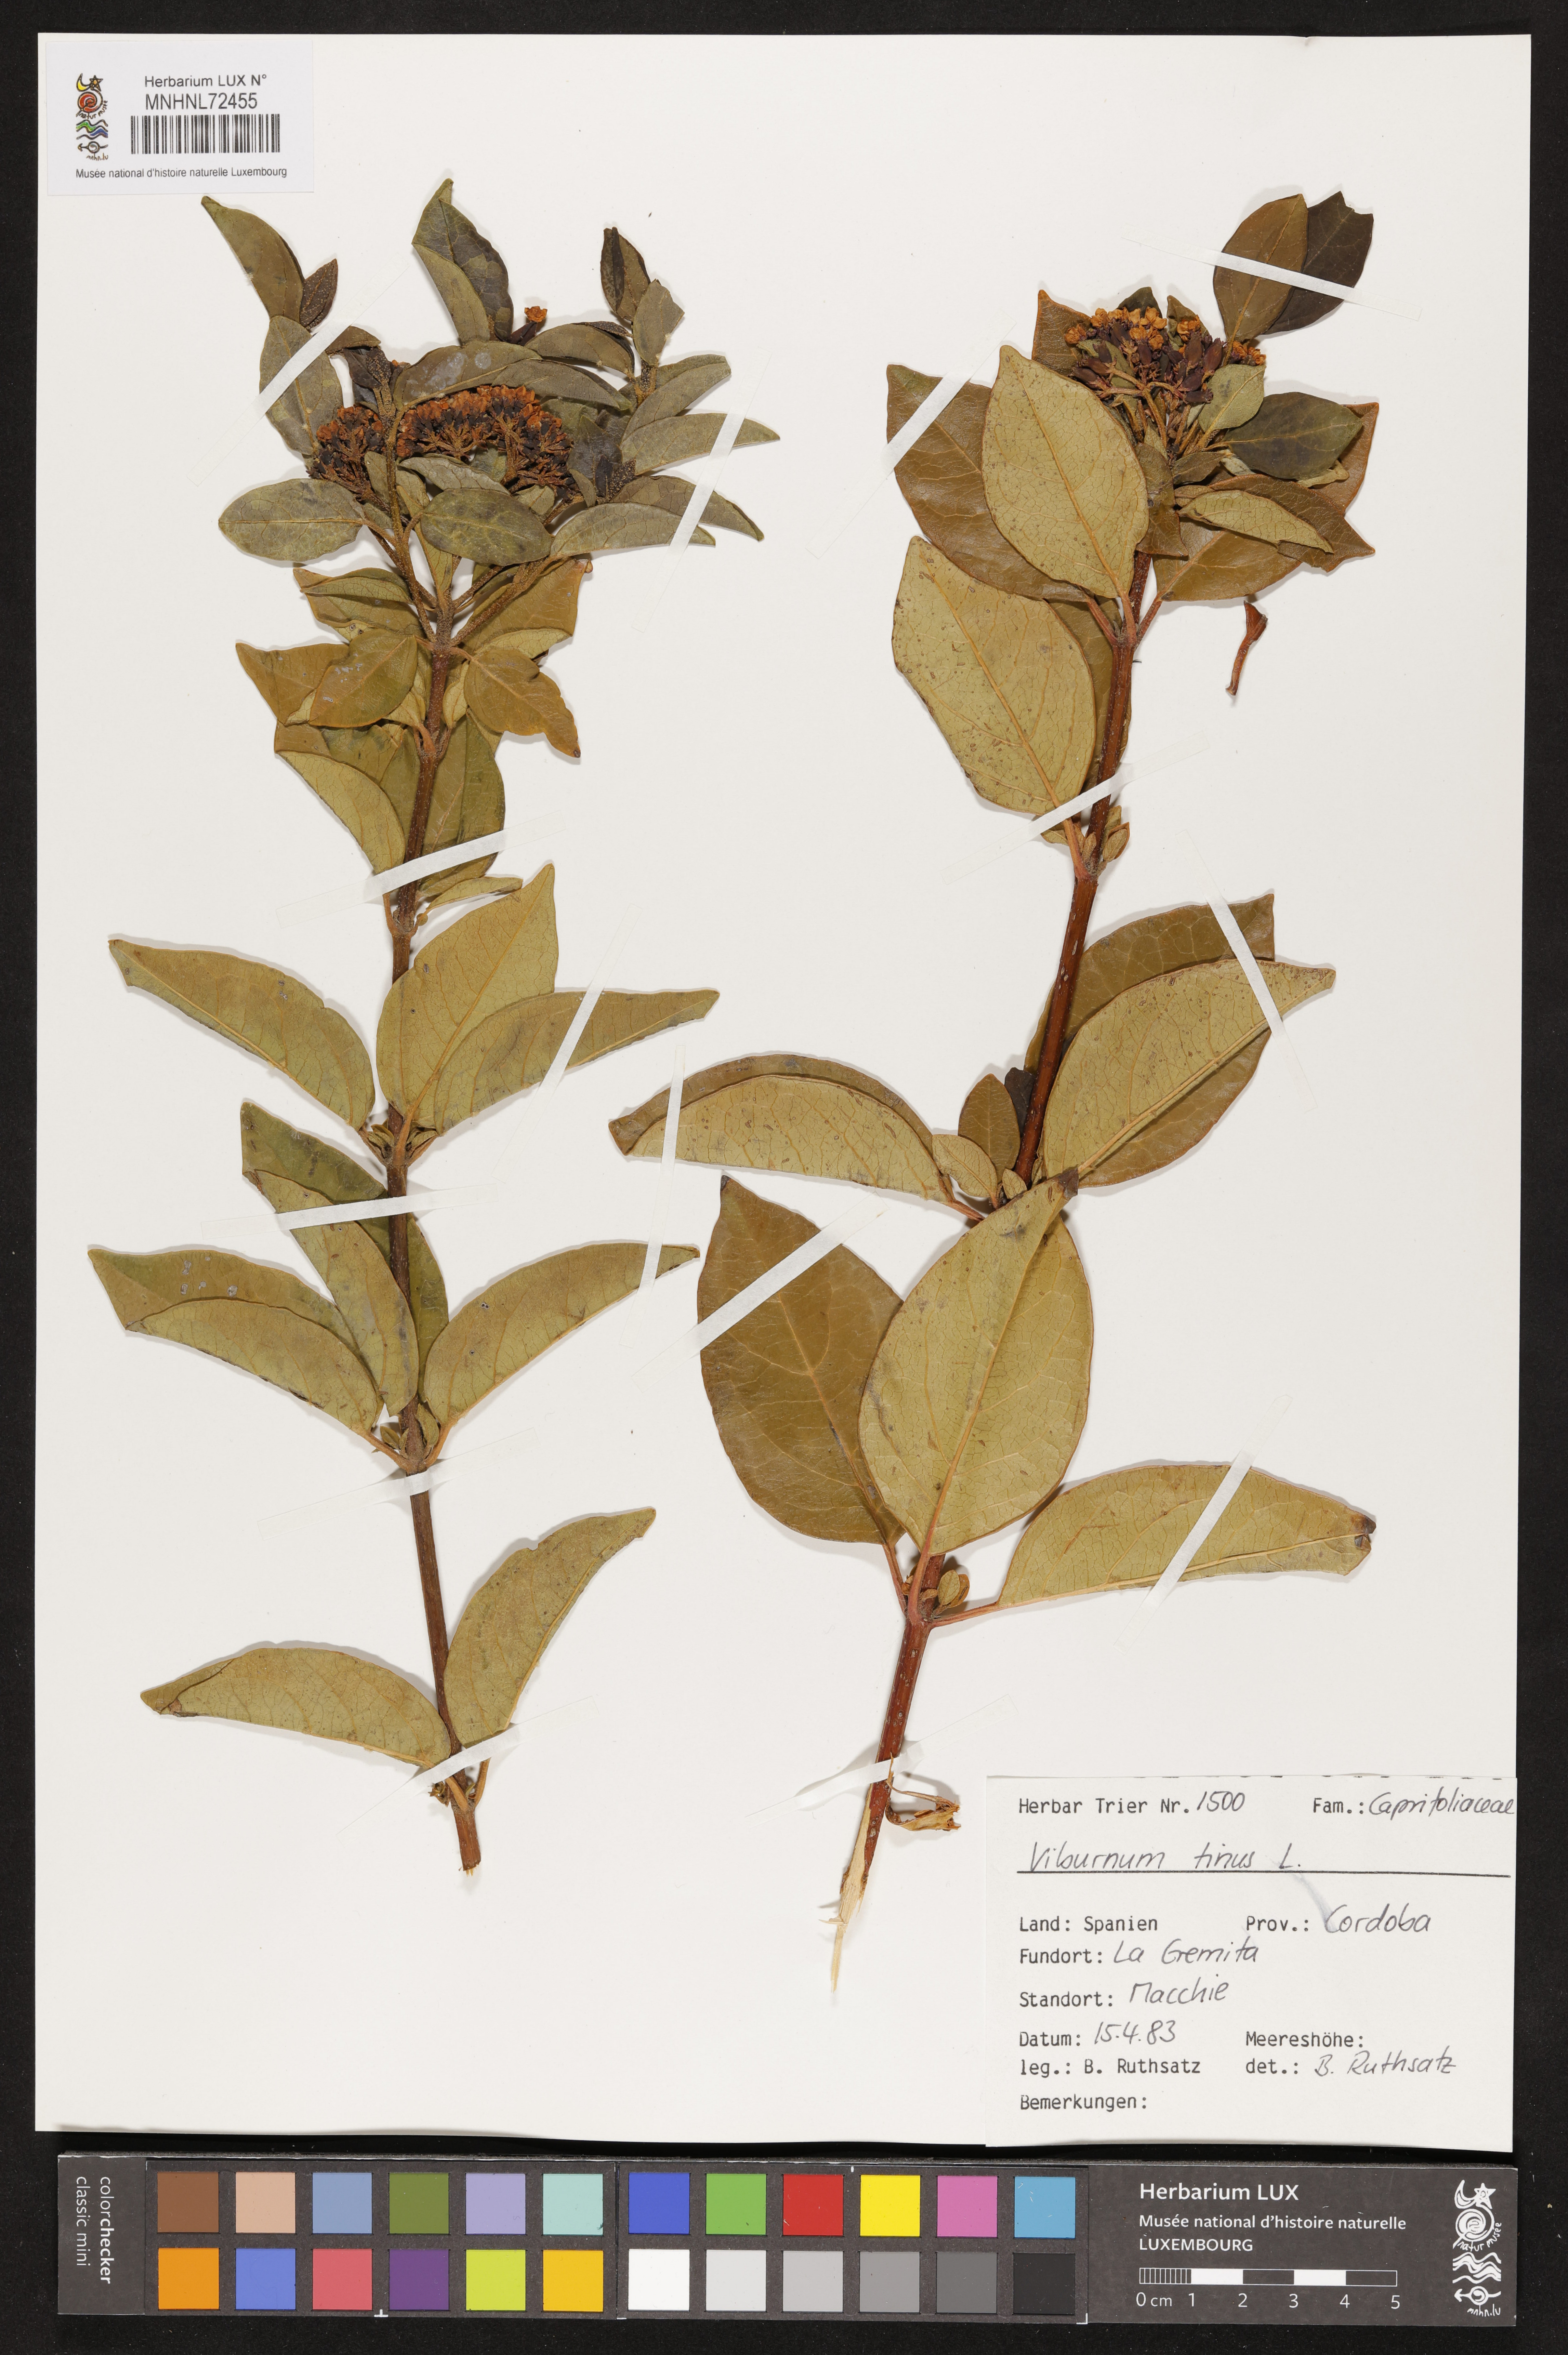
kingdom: Plantae
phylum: Tracheophyta
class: Magnoliopsida
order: Dipsacales
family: Viburnaceae
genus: Viburnum
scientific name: Viburnum tinus
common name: Laurustinus
